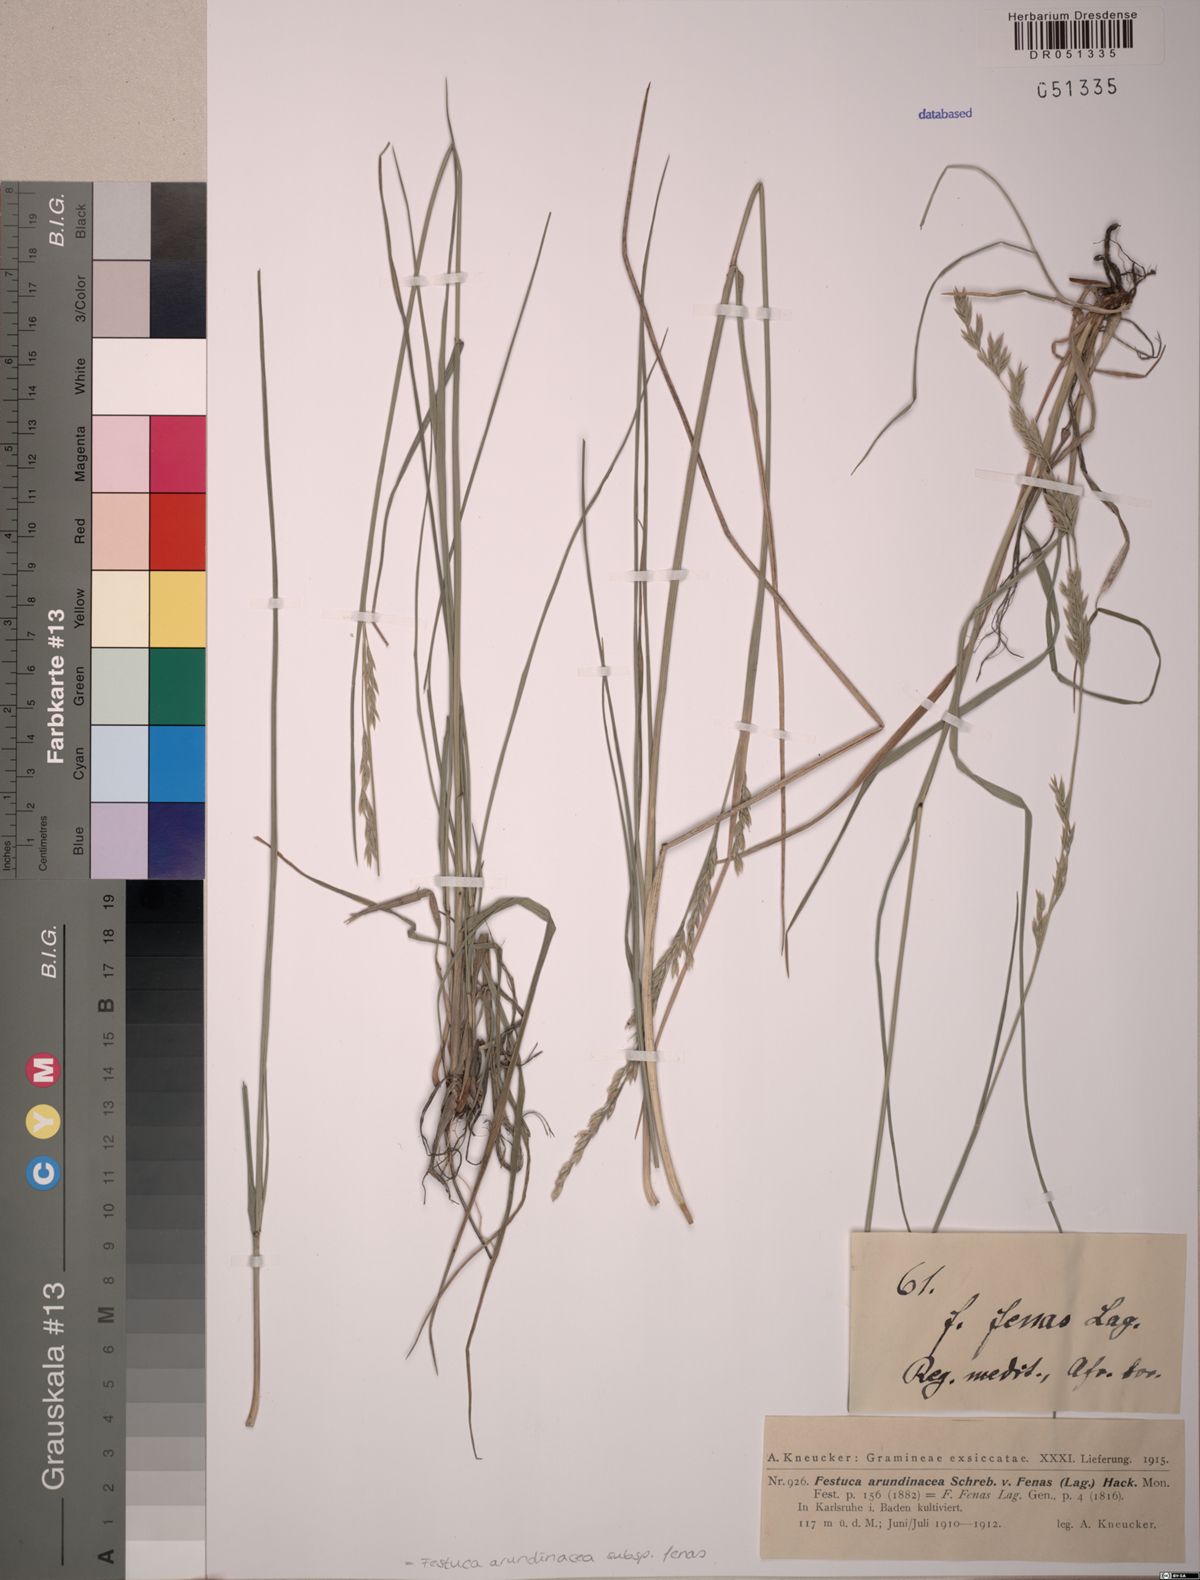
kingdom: Plantae
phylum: Tracheophyta
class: Liliopsida
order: Poales
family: Poaceae
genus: Lolium
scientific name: Lolium interruptum
